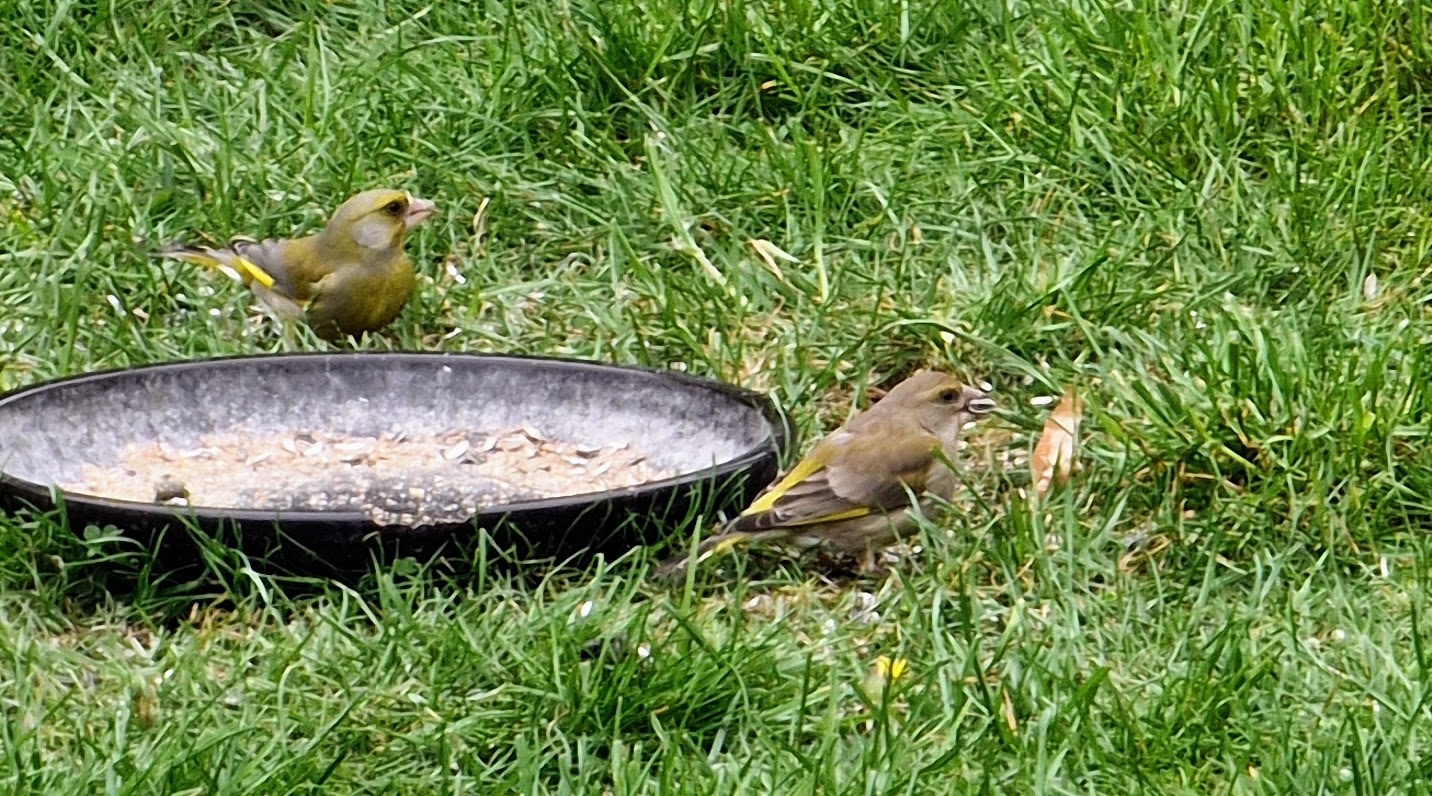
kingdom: Plantae
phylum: Tracheophyta
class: Liliopsida
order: Poales
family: Poaceae
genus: Chloris
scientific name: Chloris chloris
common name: Grønirisk
